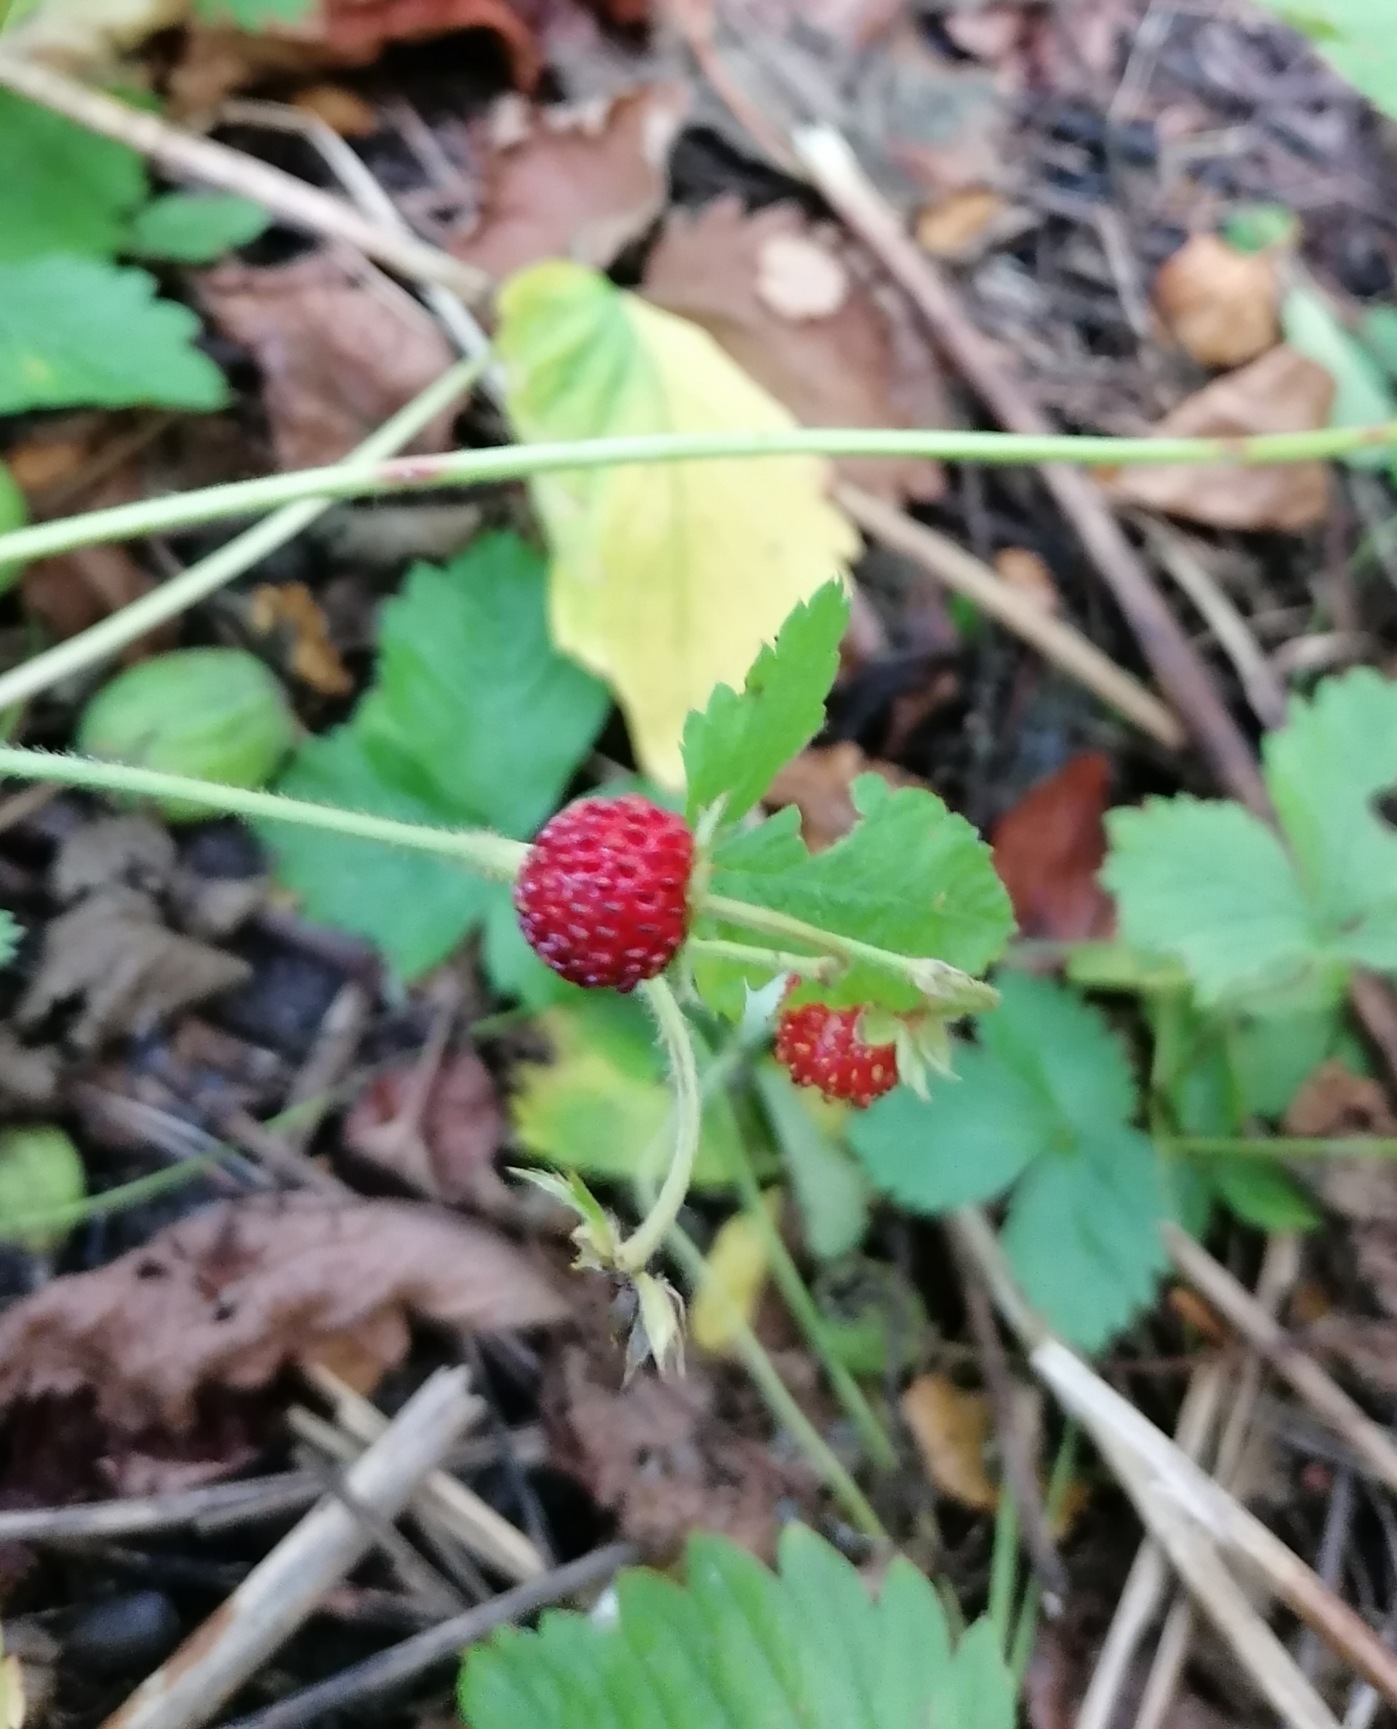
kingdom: Plantae
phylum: Tracheophyta
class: Magnoliopsida
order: Rosales
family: Rosaceae
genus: Fragaria
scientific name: Fragaria vesca
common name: Skov-jordbær
